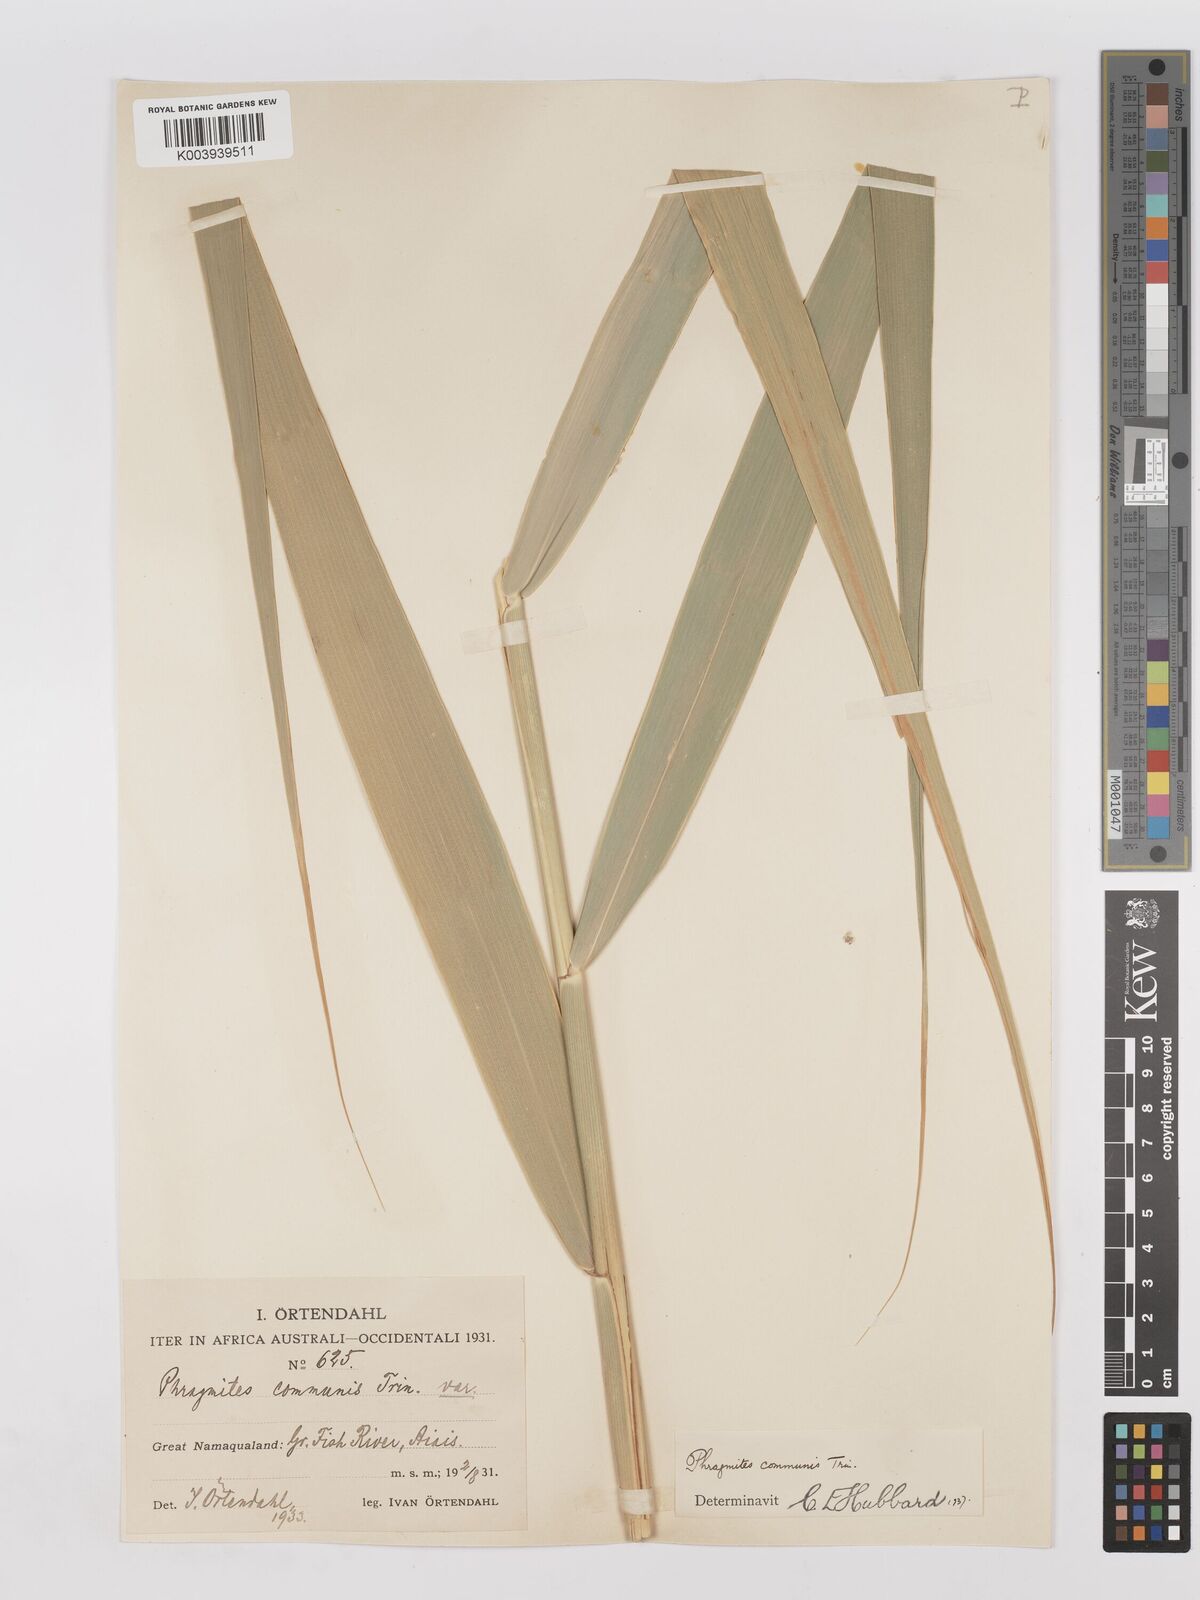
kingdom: Plantae
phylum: Tracheophyta
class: Liliopsida
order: Poales
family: Poaceae
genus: Phragmites
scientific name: Phragmites australis
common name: Common reed
